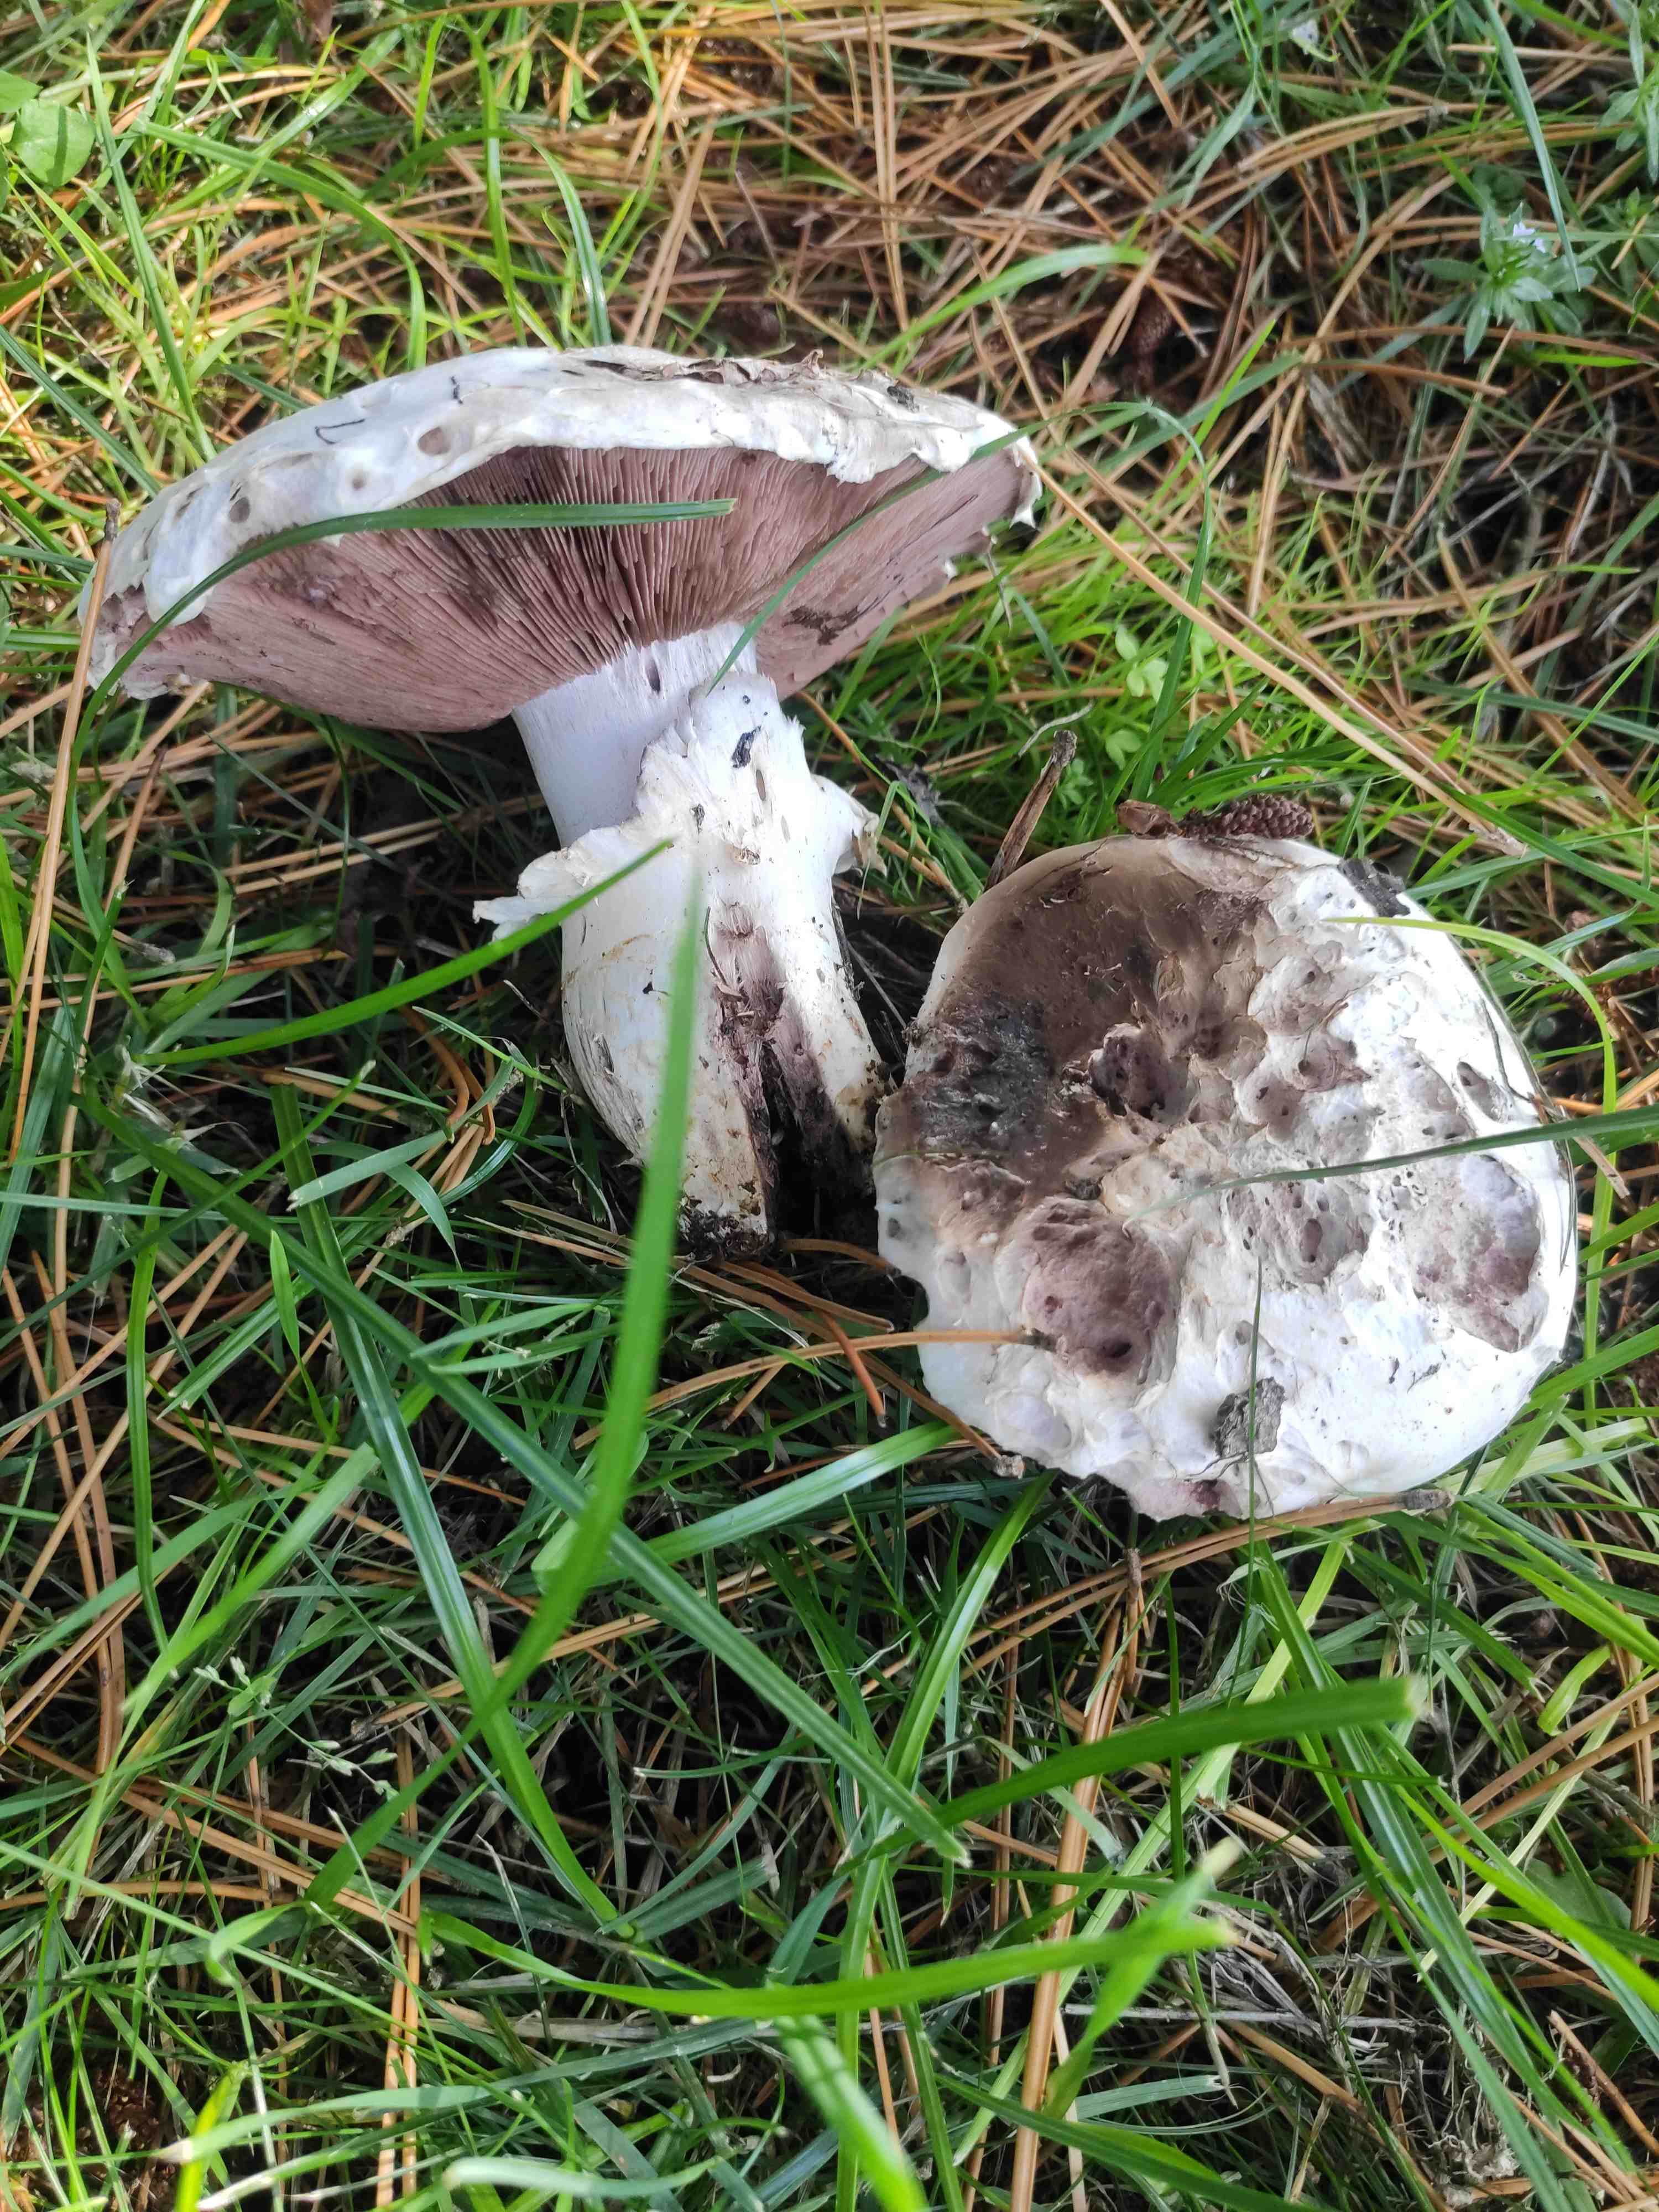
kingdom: Fungi
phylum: Basidiomycota
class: Agaricomycetes
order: Agaricales
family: Agaricaceae
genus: Agaricus
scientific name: Agaricus
